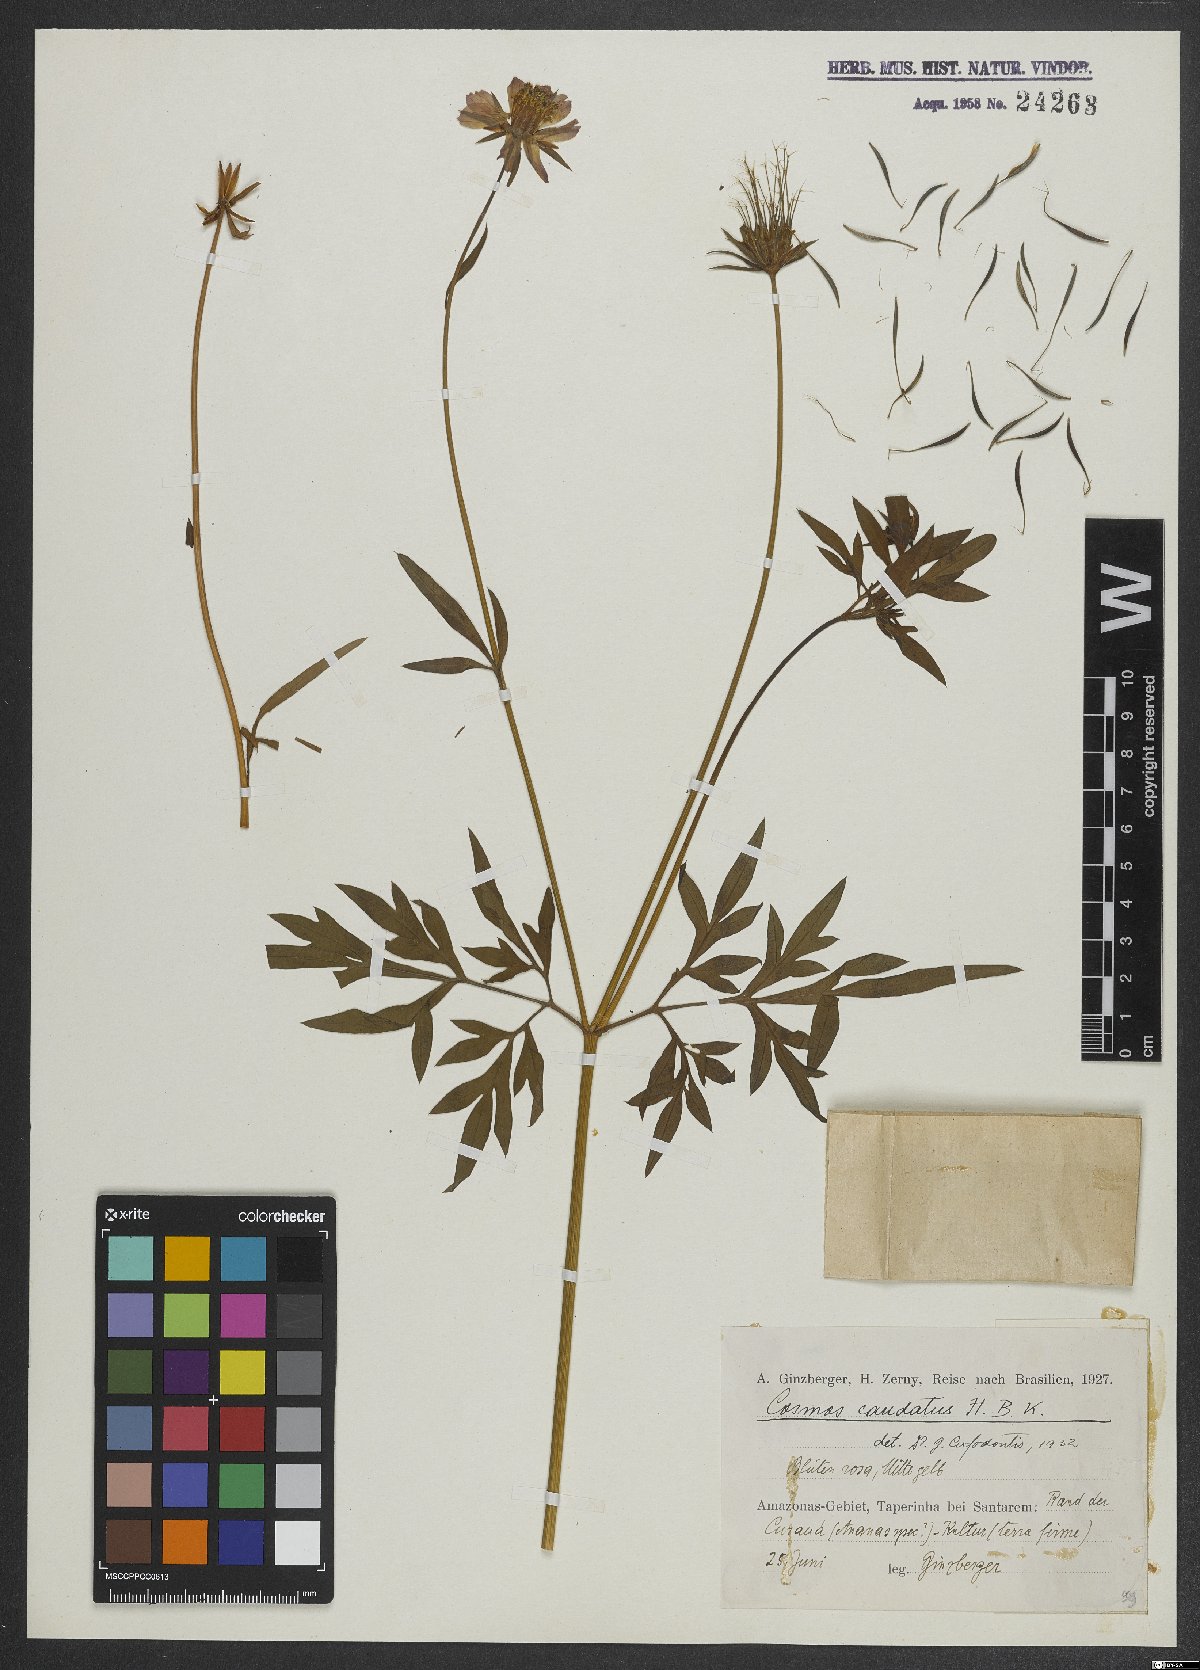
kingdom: Plantae
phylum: Tracheophyta
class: Magnoliopsida
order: Asterales
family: Asteraceae
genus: Cosmos
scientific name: Cosmos caudatus
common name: Wild cosmos
